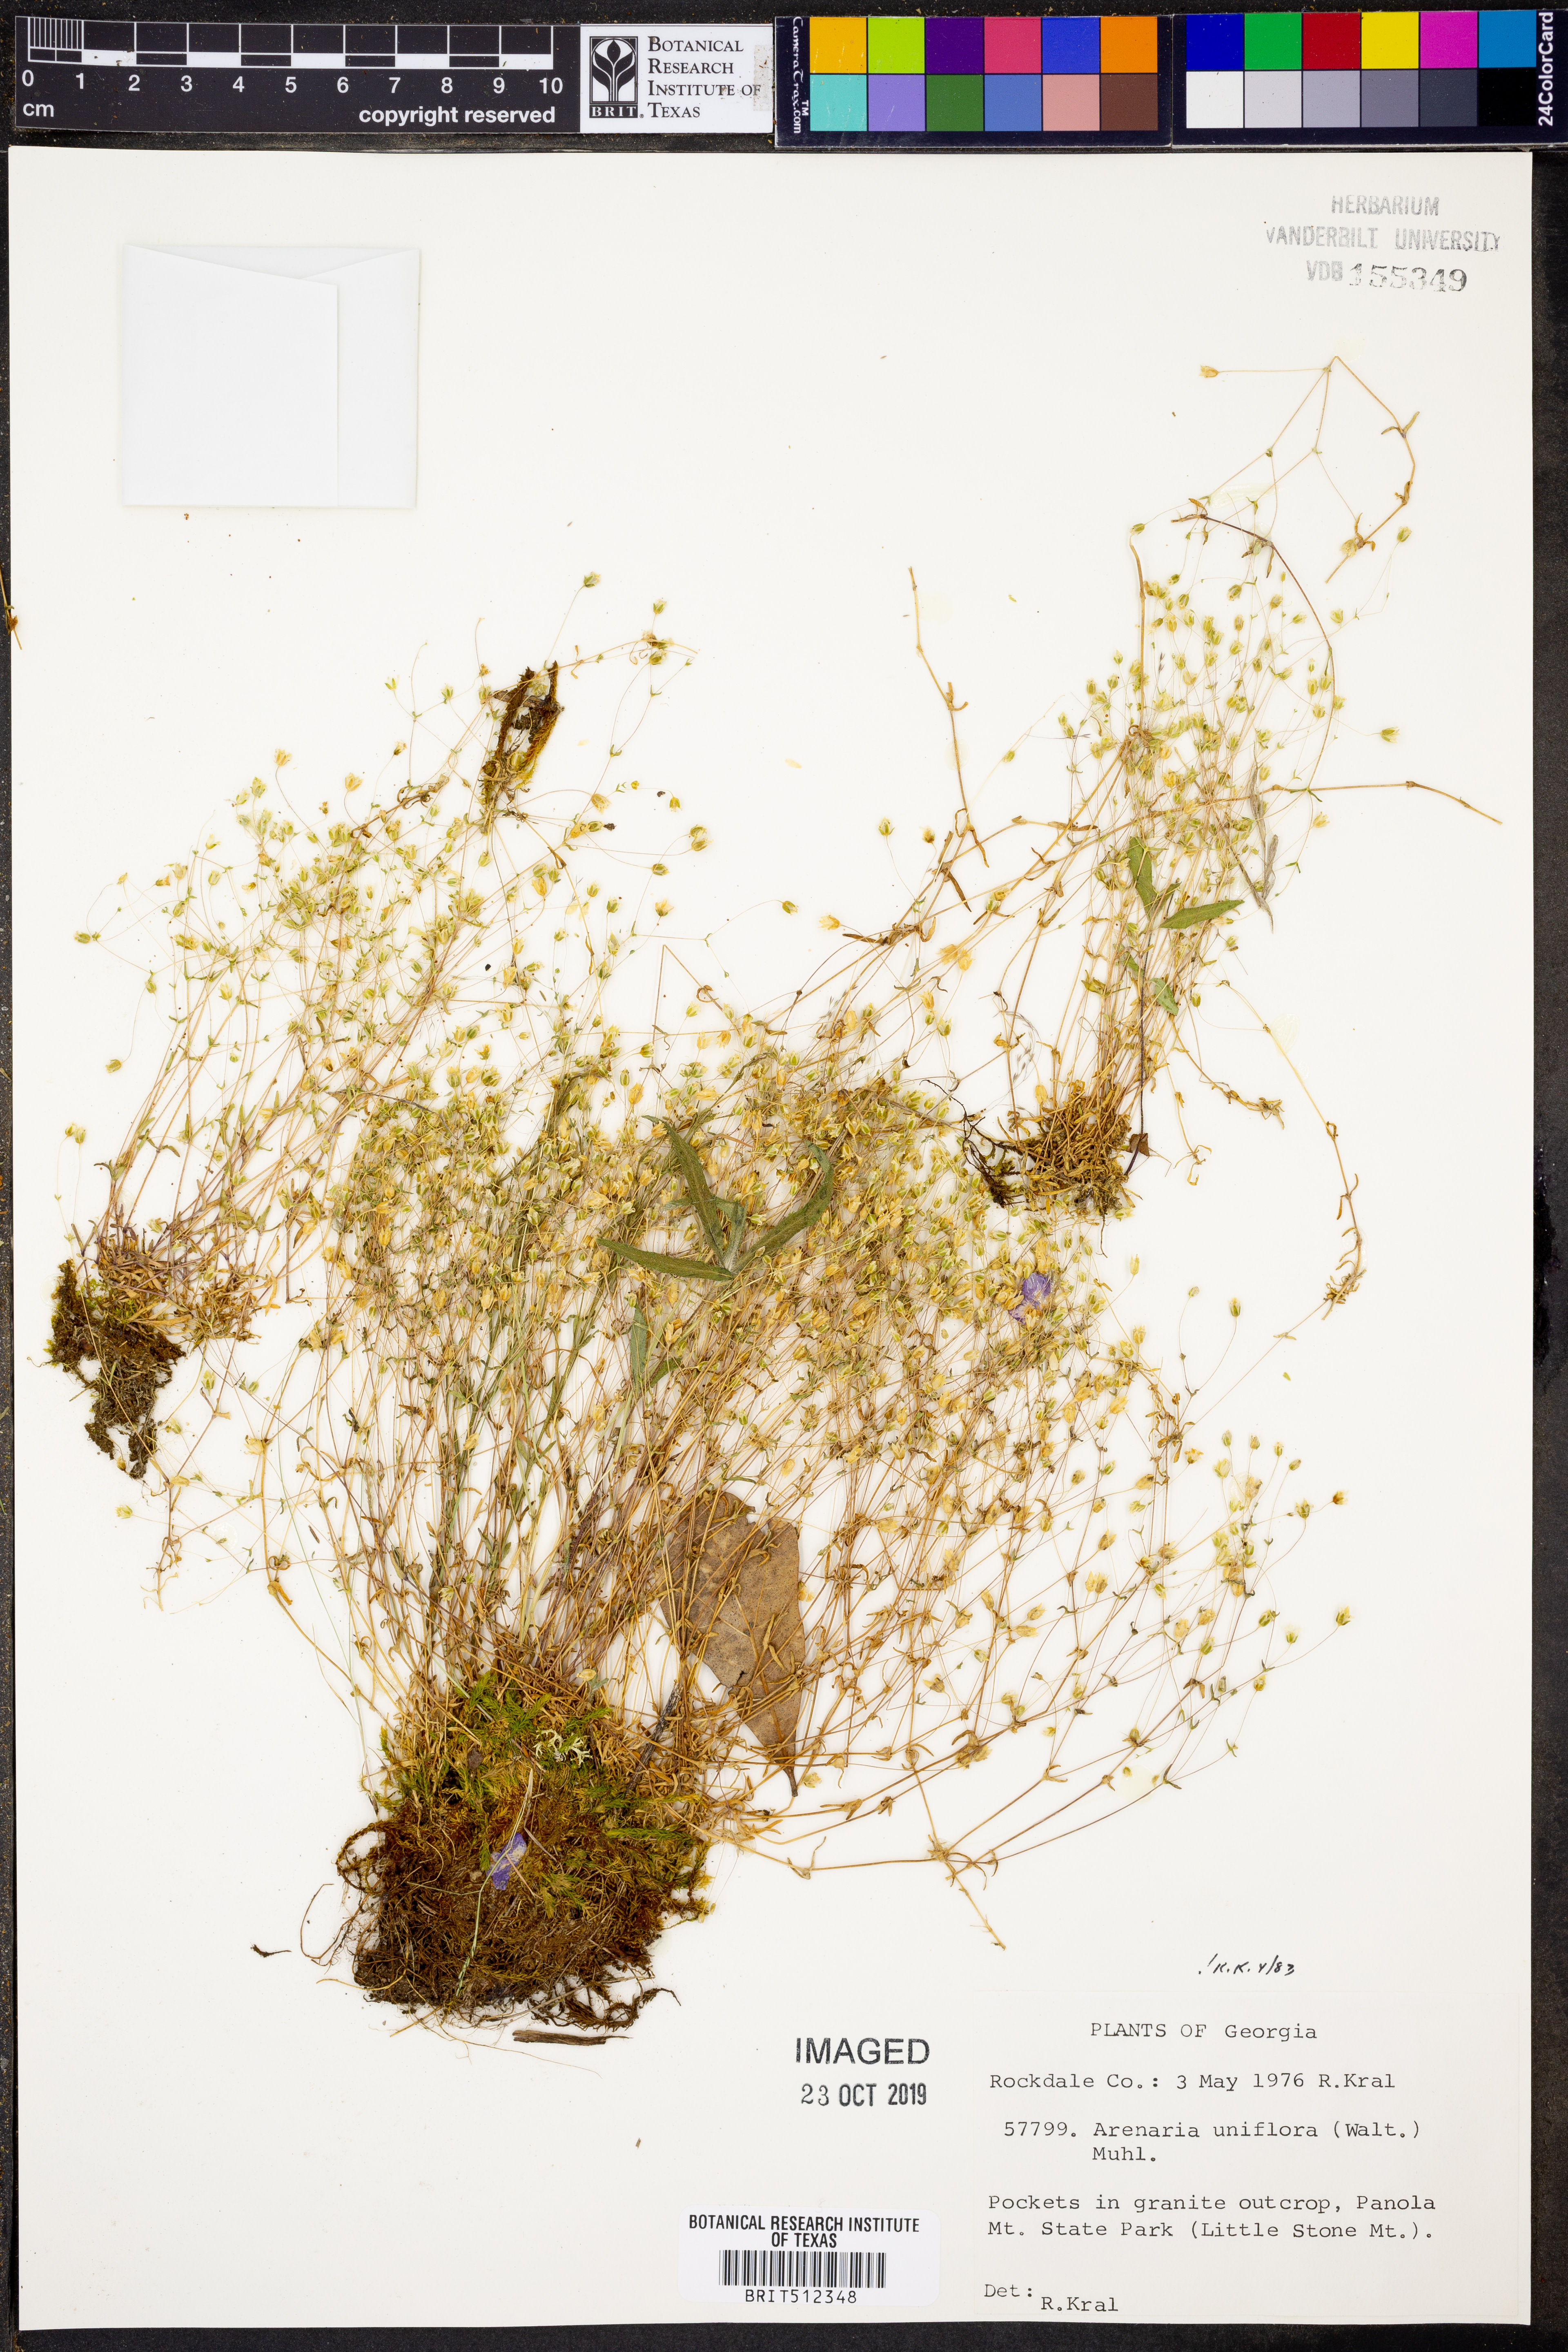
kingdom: Plantae
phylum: Tracheophyta
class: Magnoliopsida
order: Caryophyllales
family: Caryophyllaceae
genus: Geocarpon
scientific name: Geocarpon uniflorum
